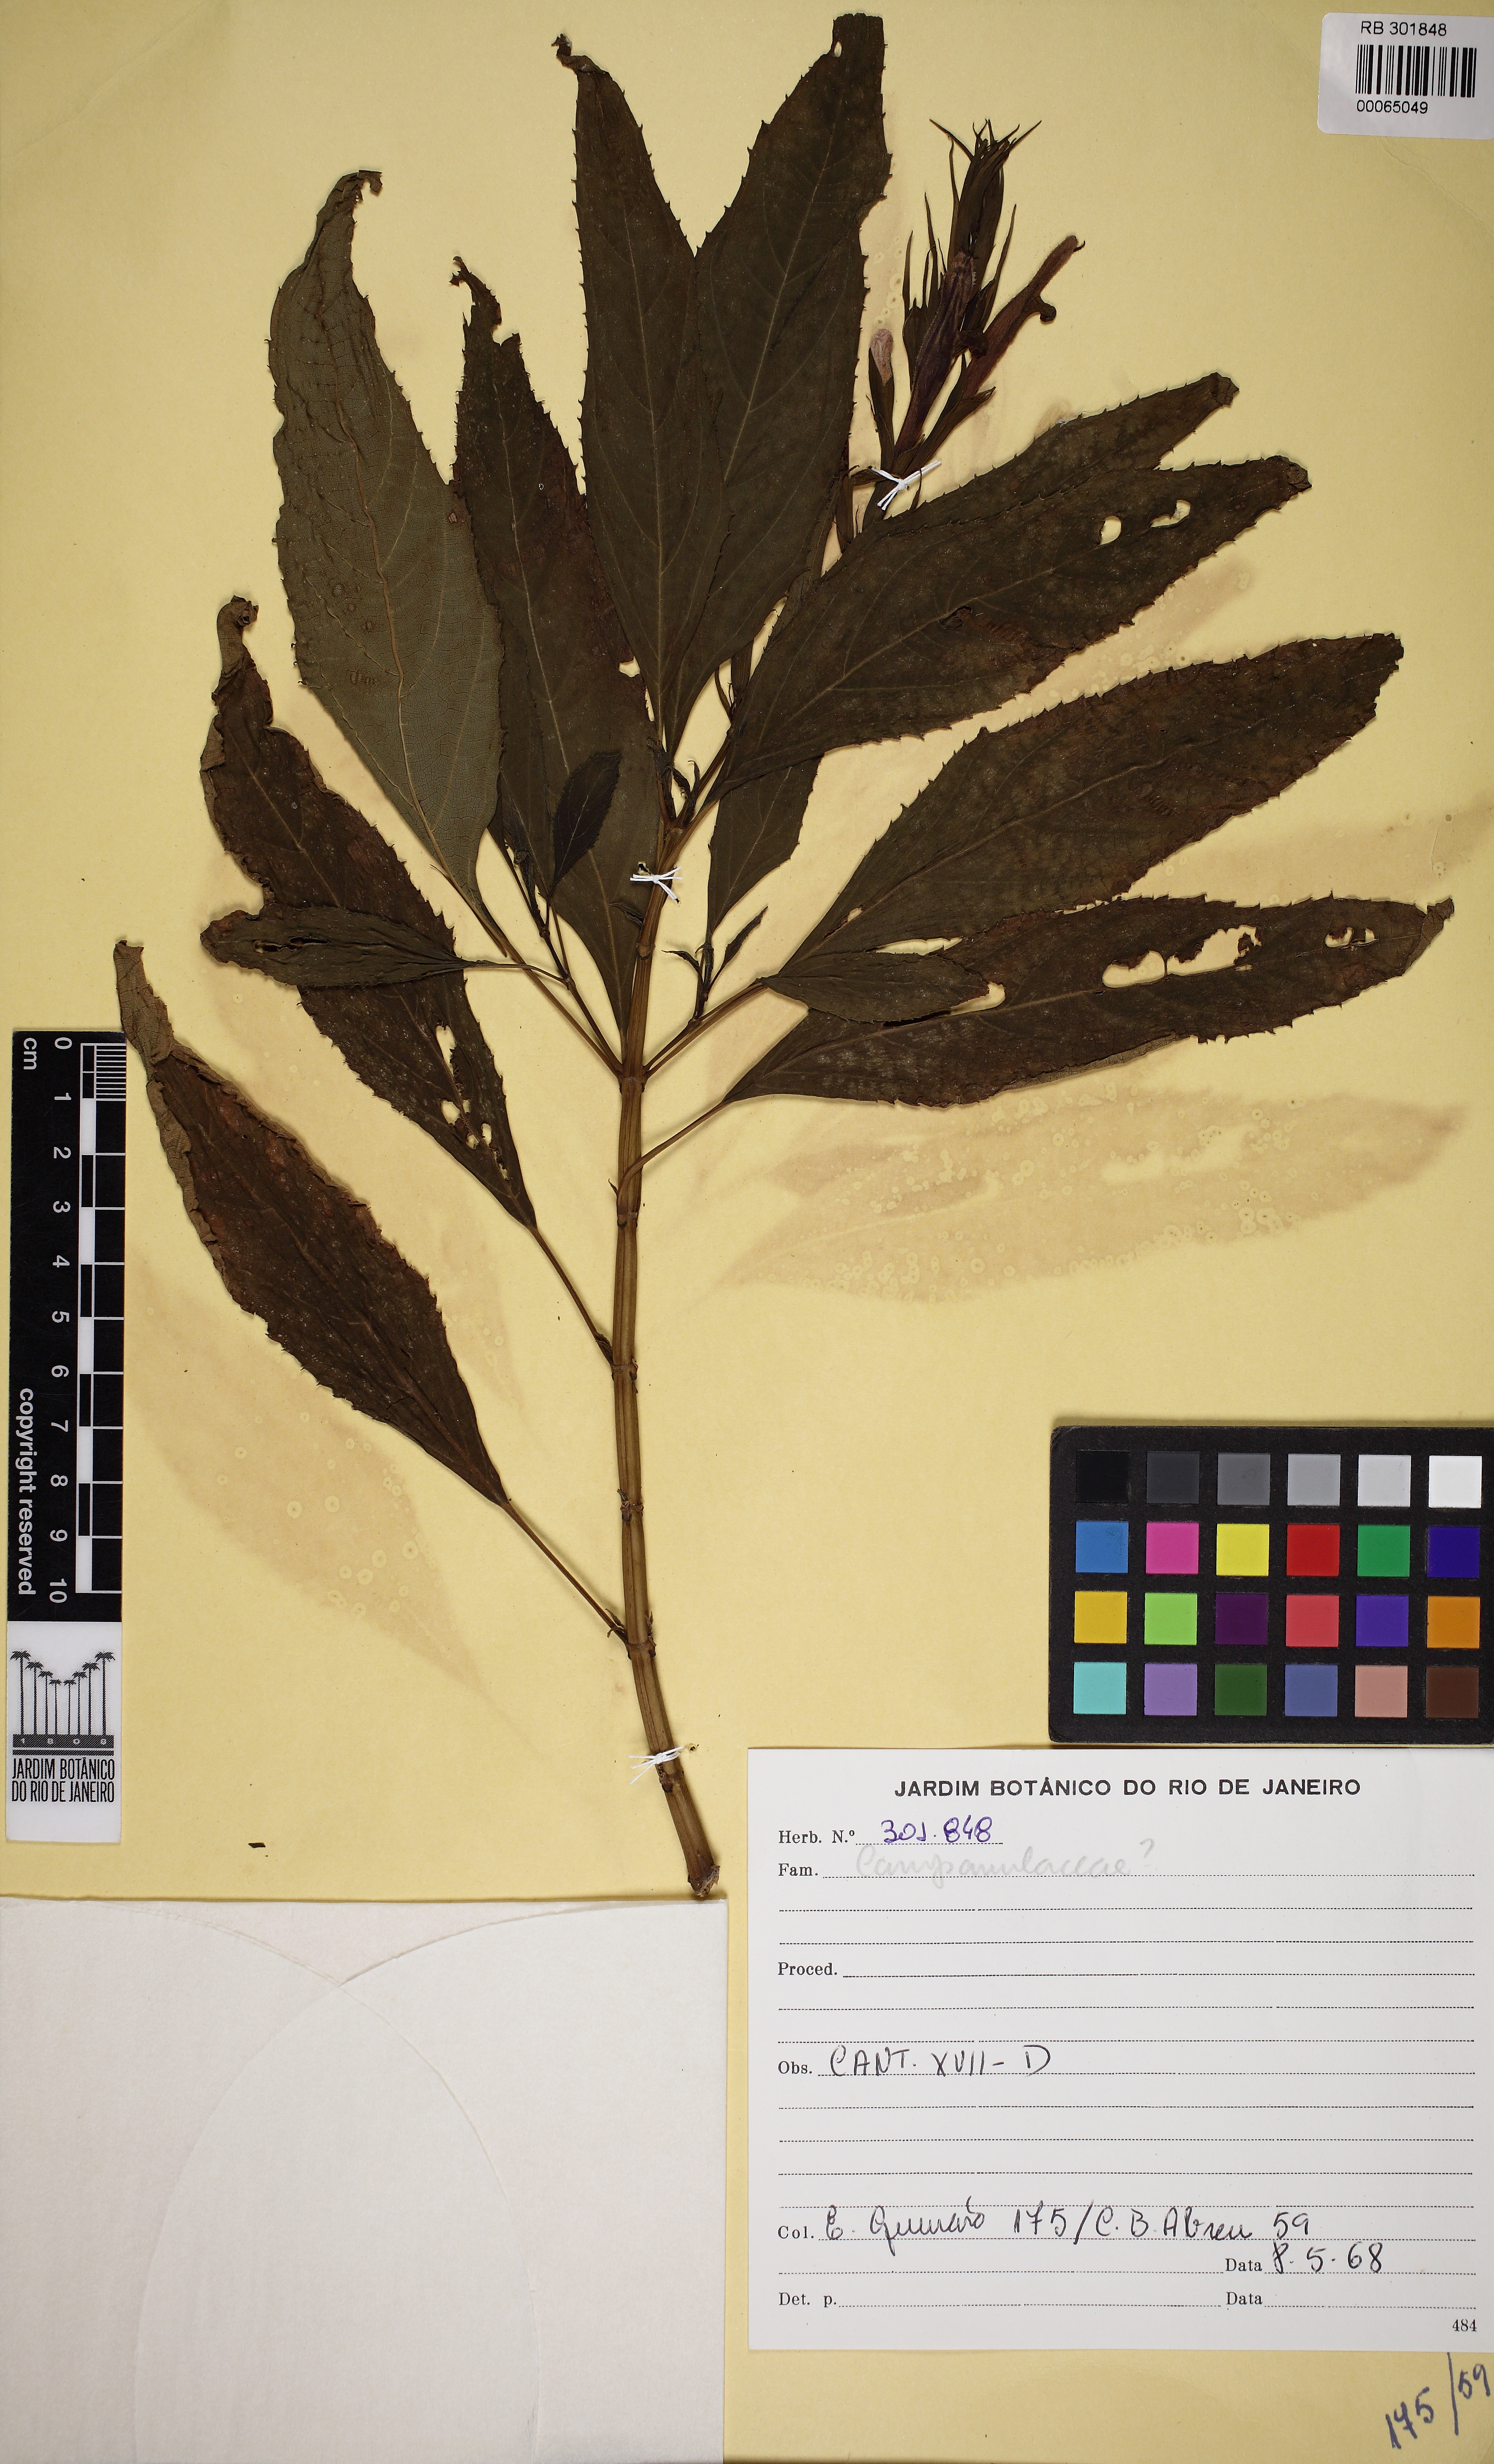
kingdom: Plantae
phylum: Tracheophyta
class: Magnoliopsida
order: Lamiales
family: Lamiaceae
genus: Salvia
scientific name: Salvia sellowiana
